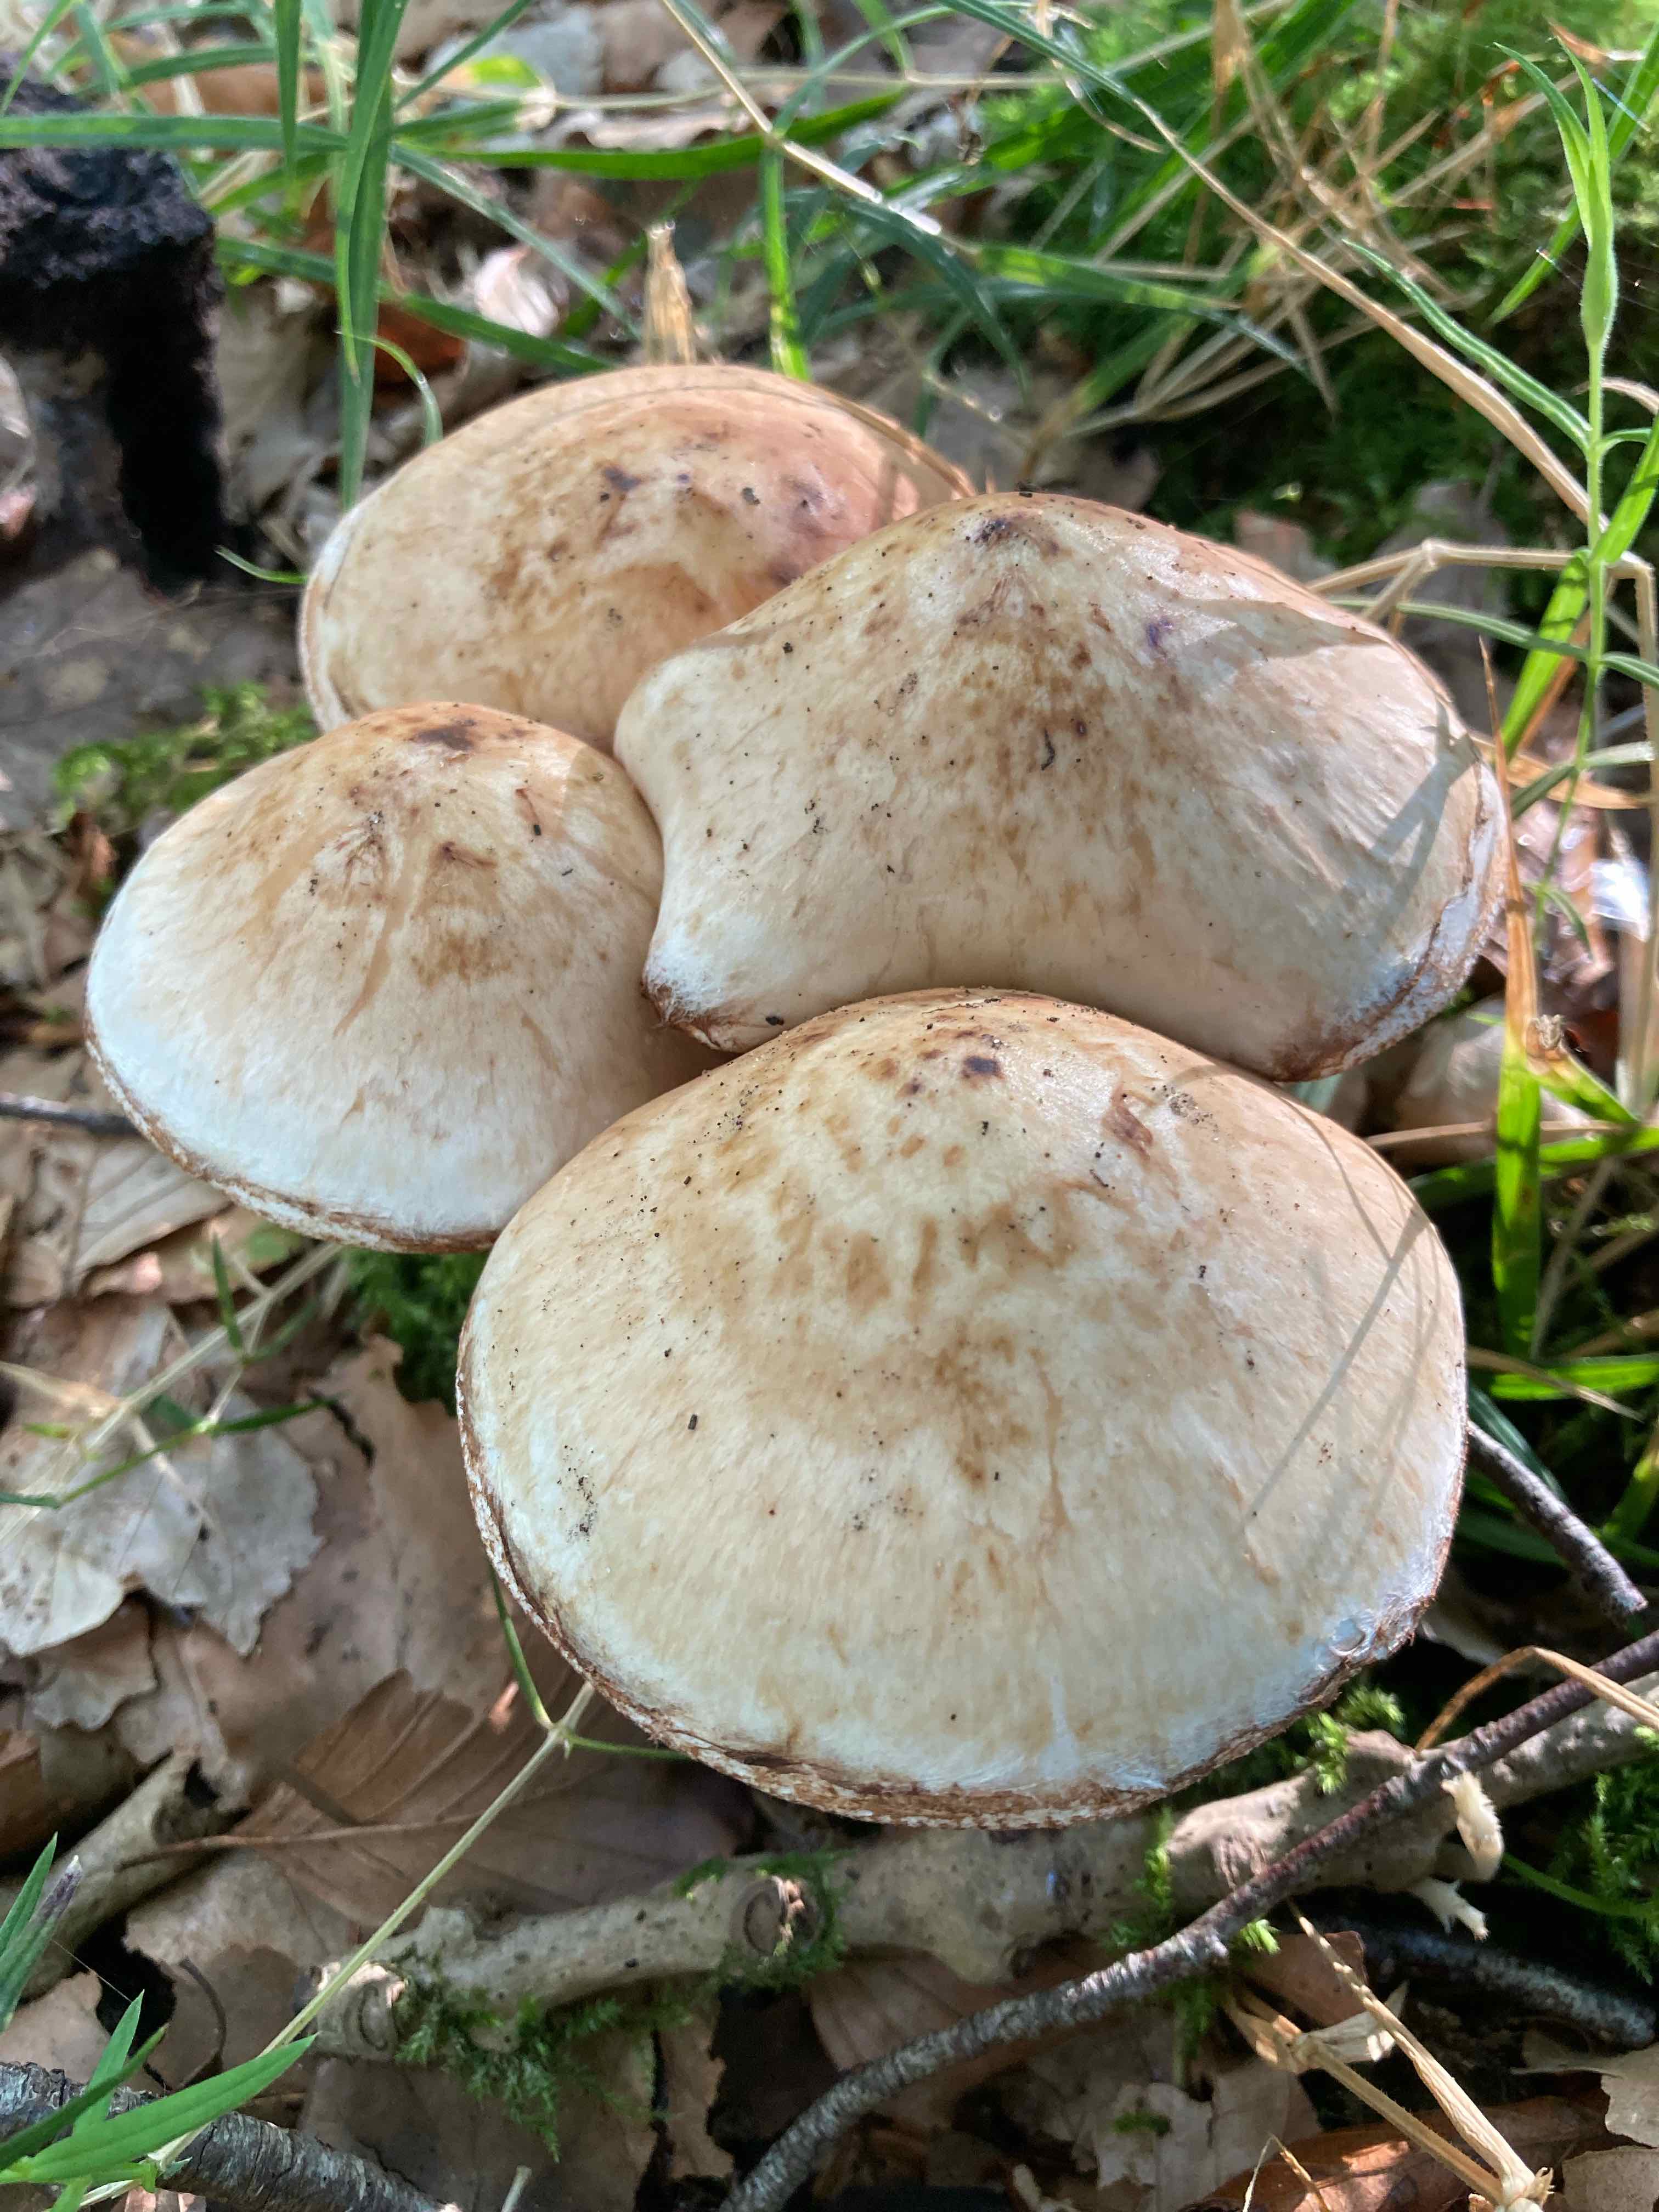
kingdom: Fungi
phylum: Basidiomycota
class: Agaricomycetes
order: Agaricales
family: Hymenogastraceae
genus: Hebeloma
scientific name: Hebeloma radicosum
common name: pælerods-tåreblad
